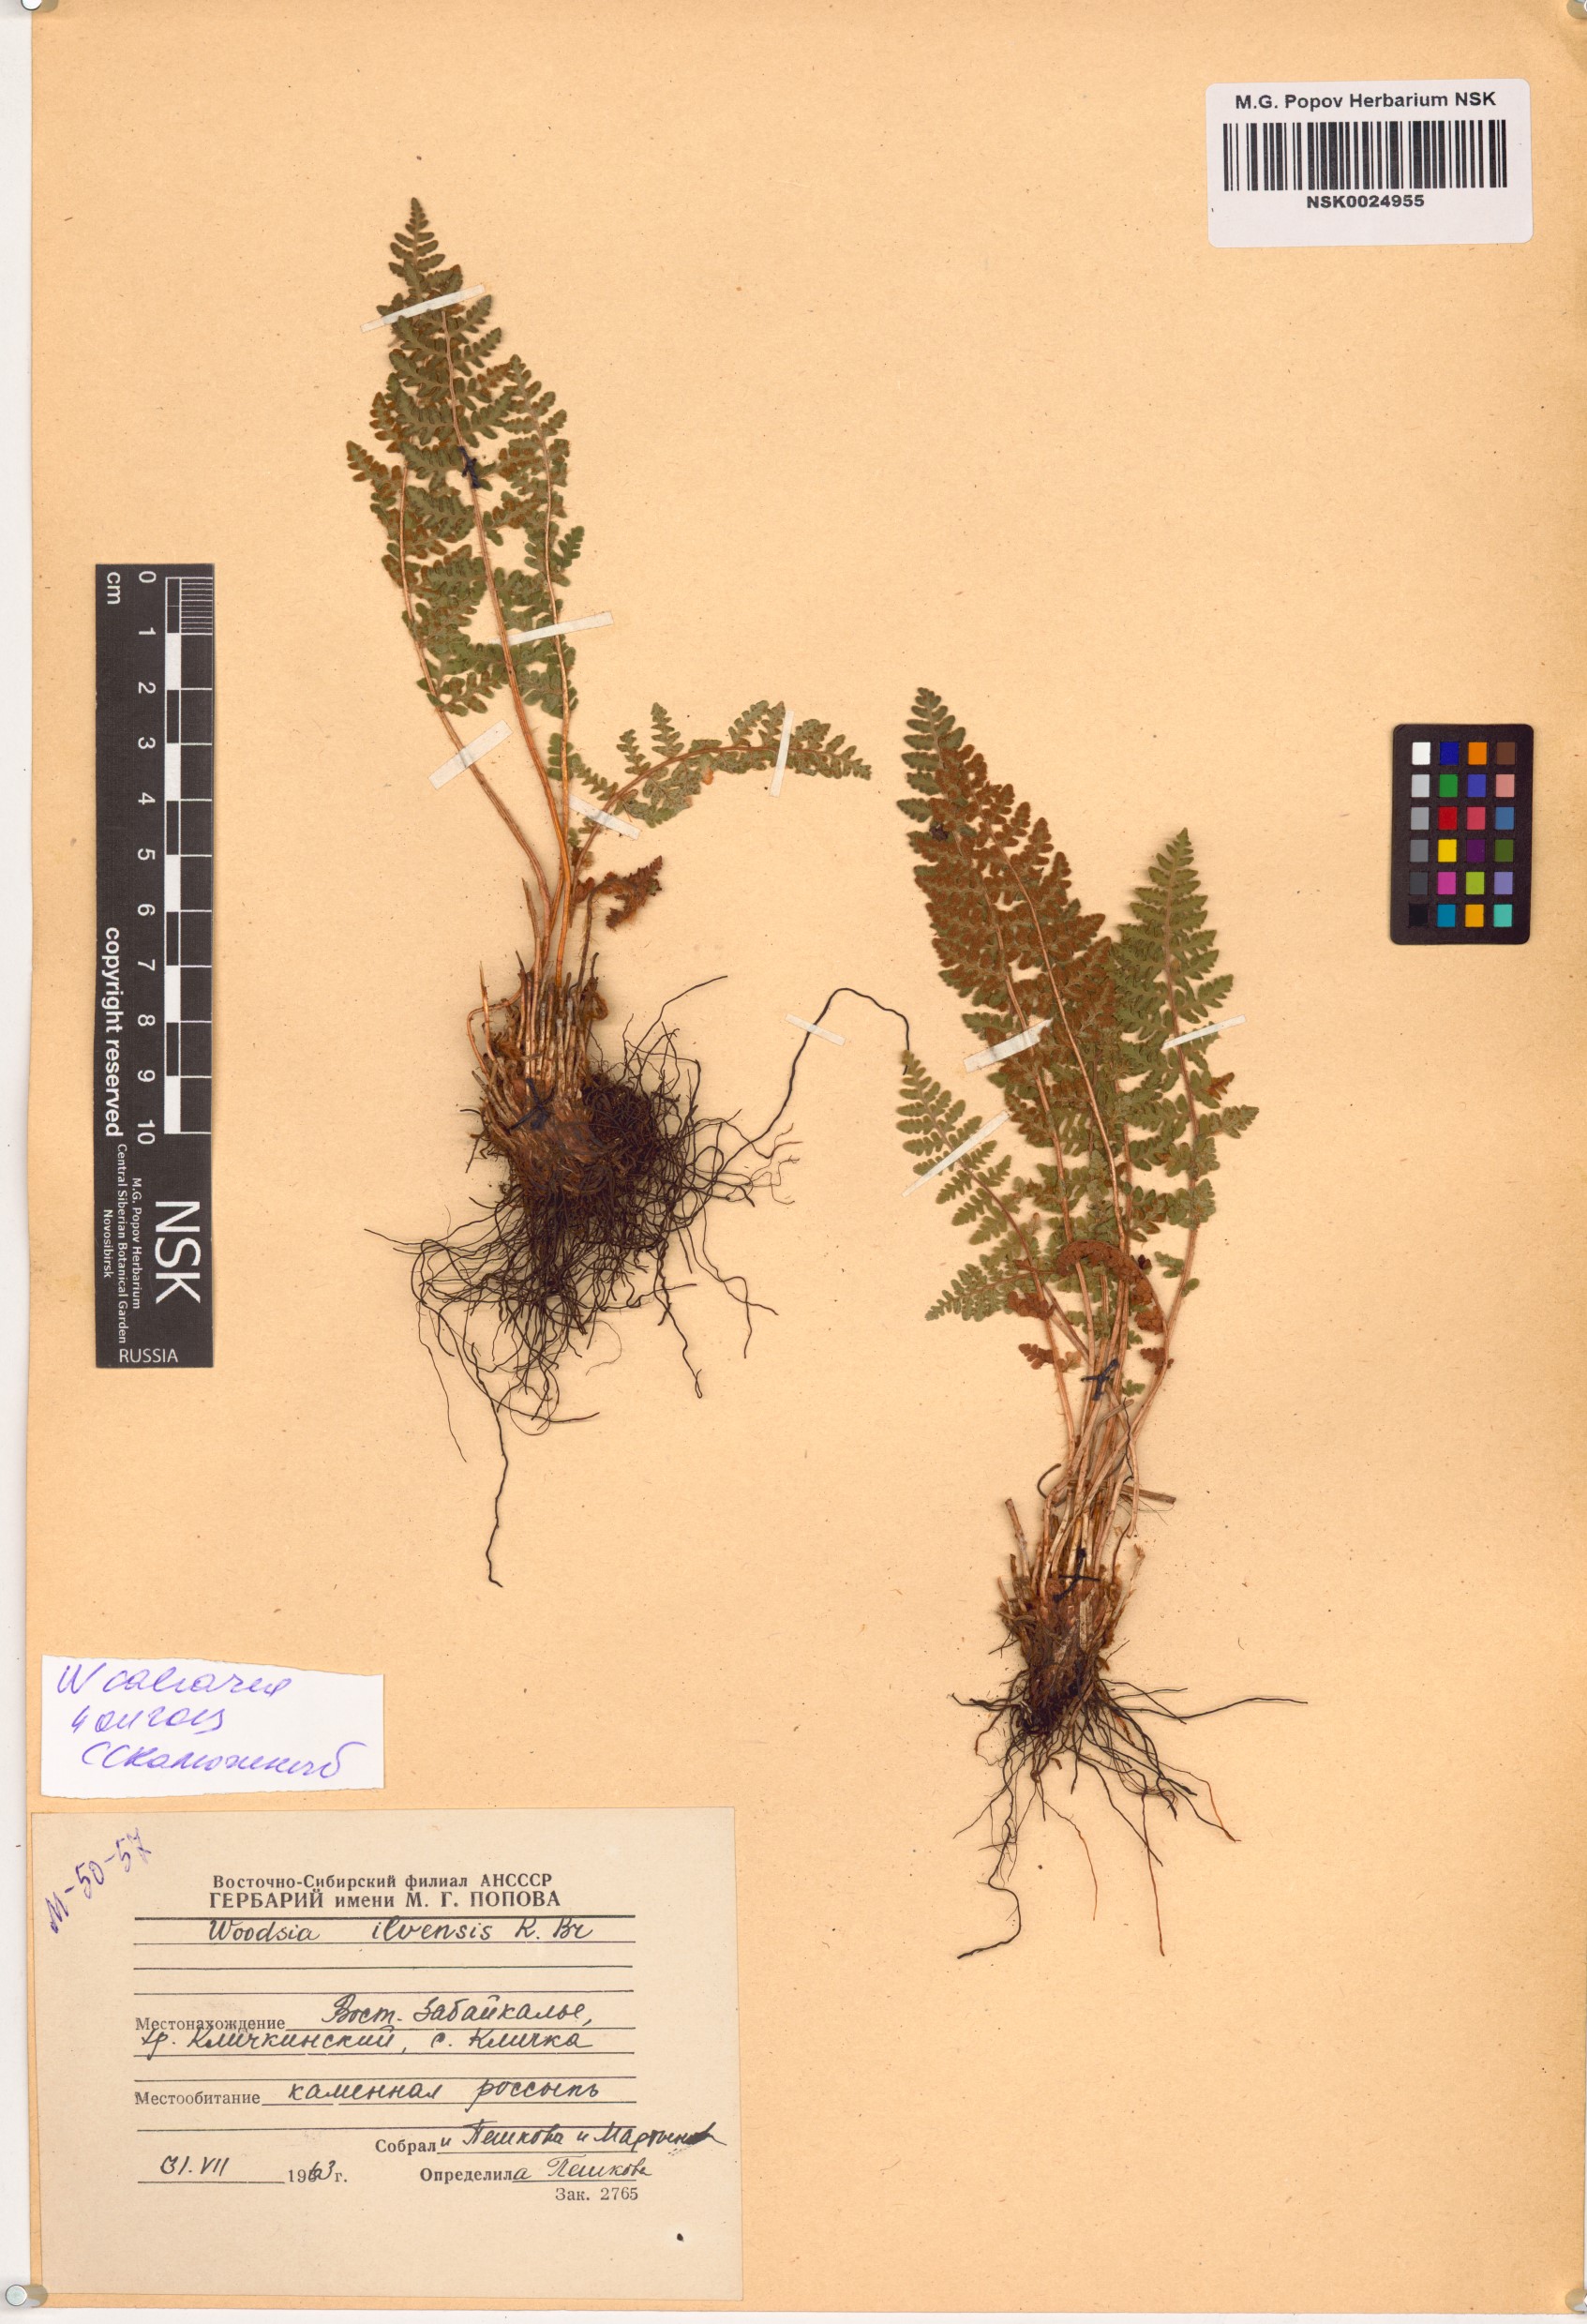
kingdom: Plantae
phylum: Tracheophyta
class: Polypodiopsida
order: Polypodiales
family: Woodsiaceae
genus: Woodsia
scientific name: Woodsia calcarea
